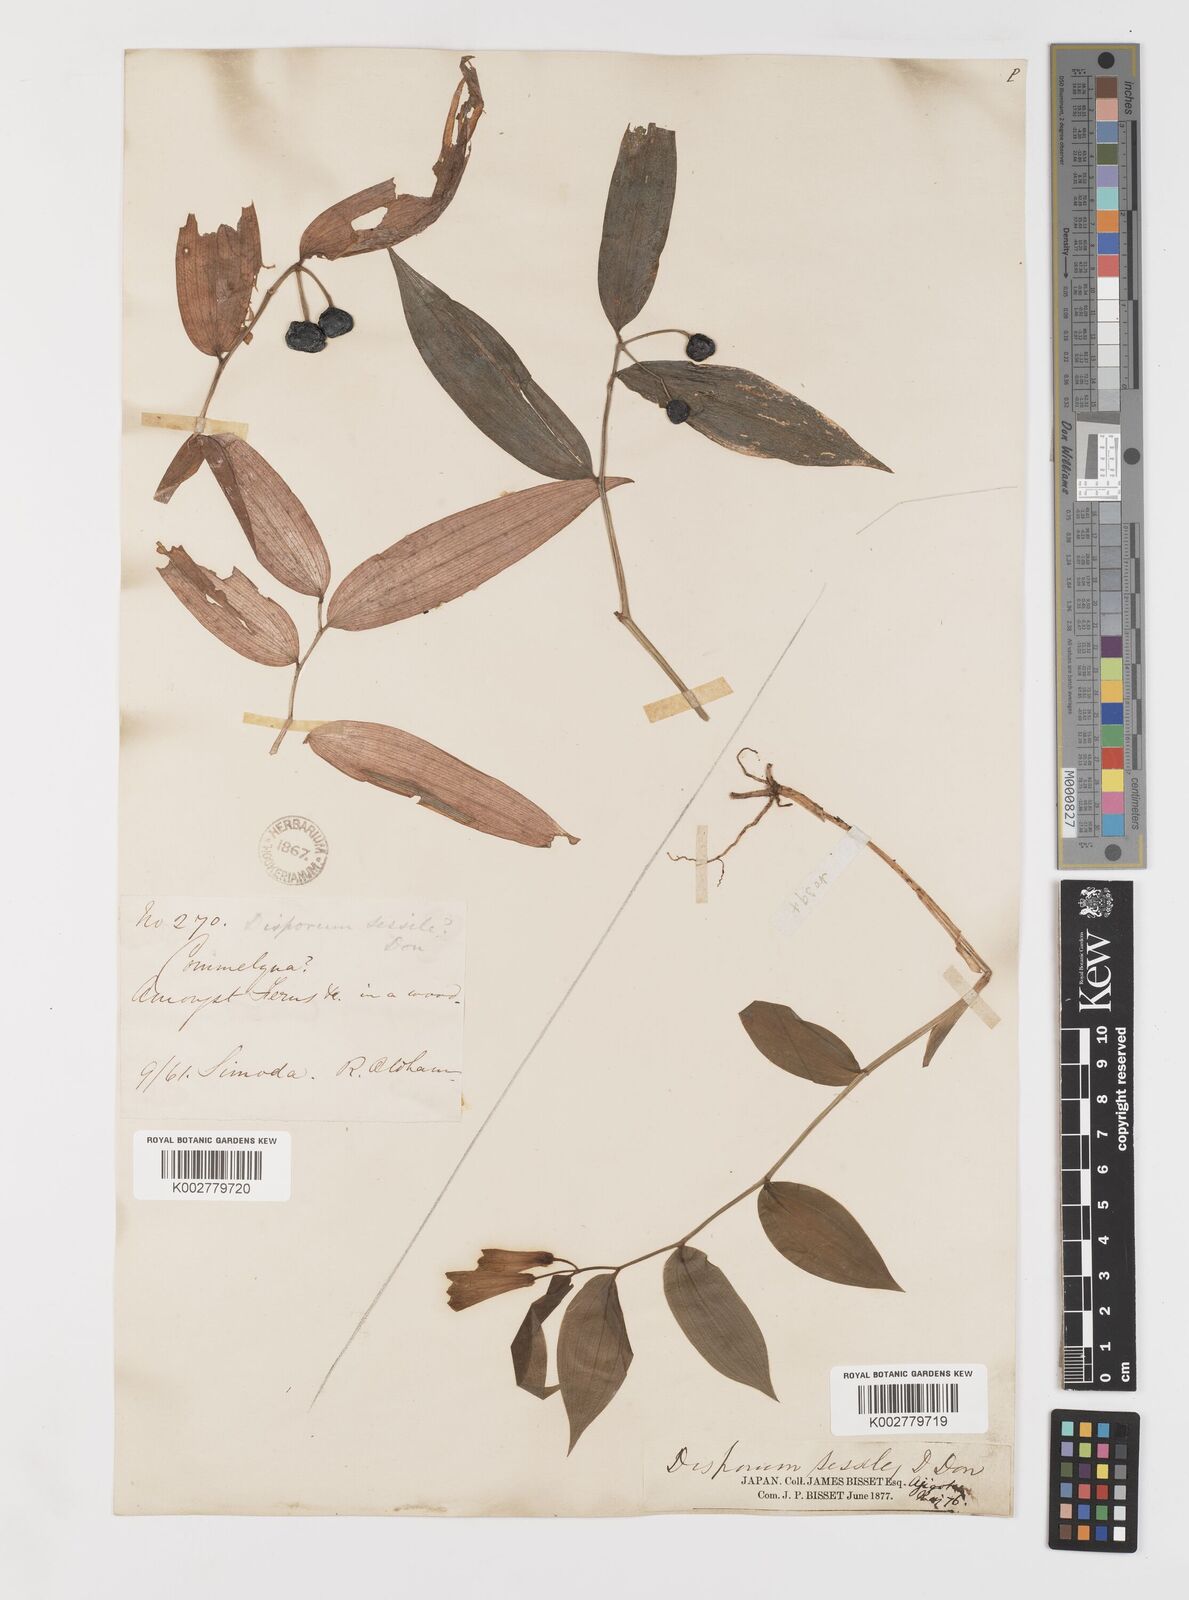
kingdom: Plantae
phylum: Tracheophyta
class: Liliopsida
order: Liliales
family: Colchicaceae
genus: Disporum
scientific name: Disporum sessile
